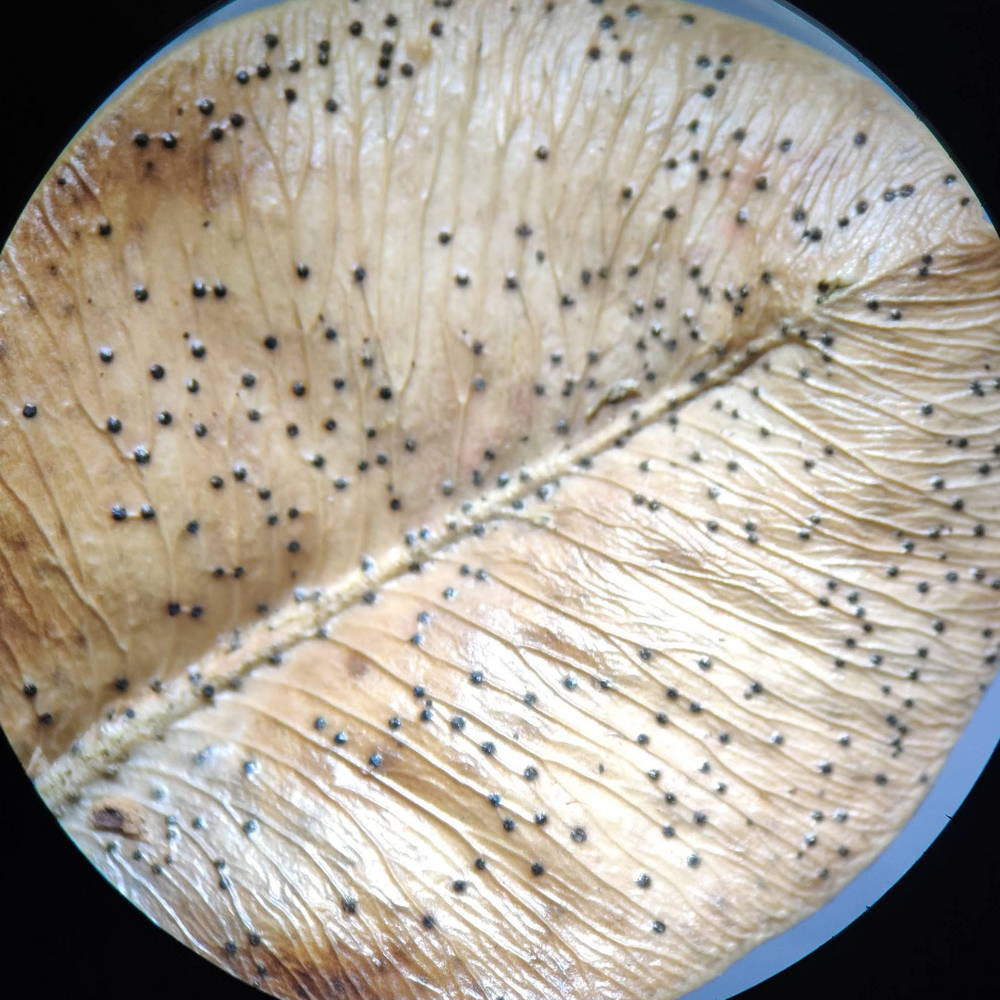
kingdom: Fungi
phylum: Ascomycota
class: Sordariomycetes
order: Diaporthales
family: Diaporthaceae
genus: Diaporthe
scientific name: Diaporthe stictica
